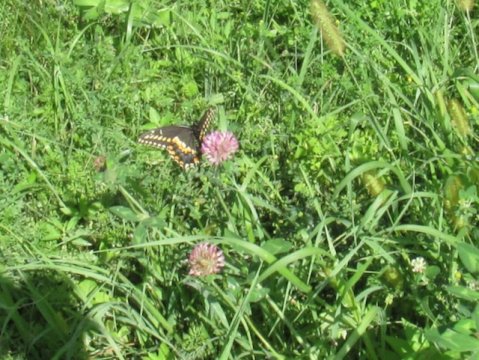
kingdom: Animalia
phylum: Arthropoda
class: Insecta
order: Lepidoptera
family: Papilionidae
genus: Papilio
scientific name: Papilio polyxenes
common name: Black Swallowtail
